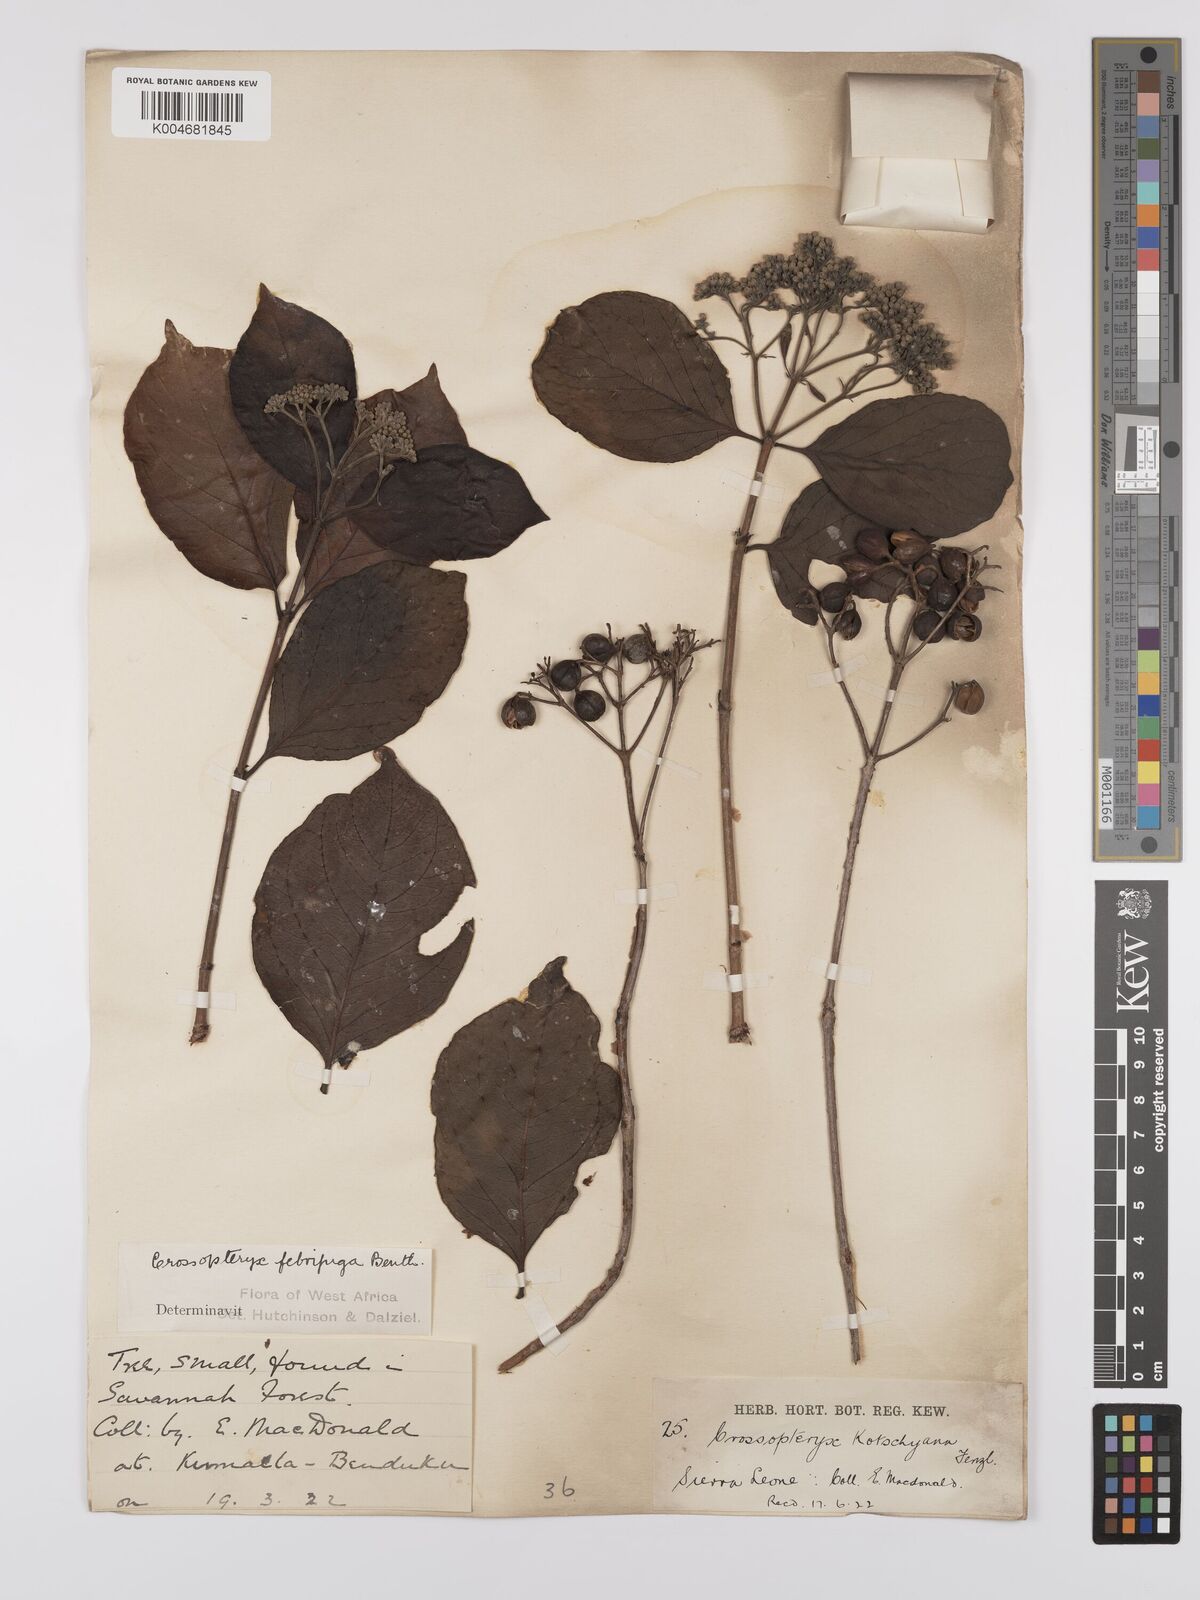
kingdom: Plantae
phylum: Tracheophyta
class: Magnoliopsida
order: Gentianales
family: Rubiaceae
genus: Crossopteryx
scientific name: Crossopteryx febrifuga
